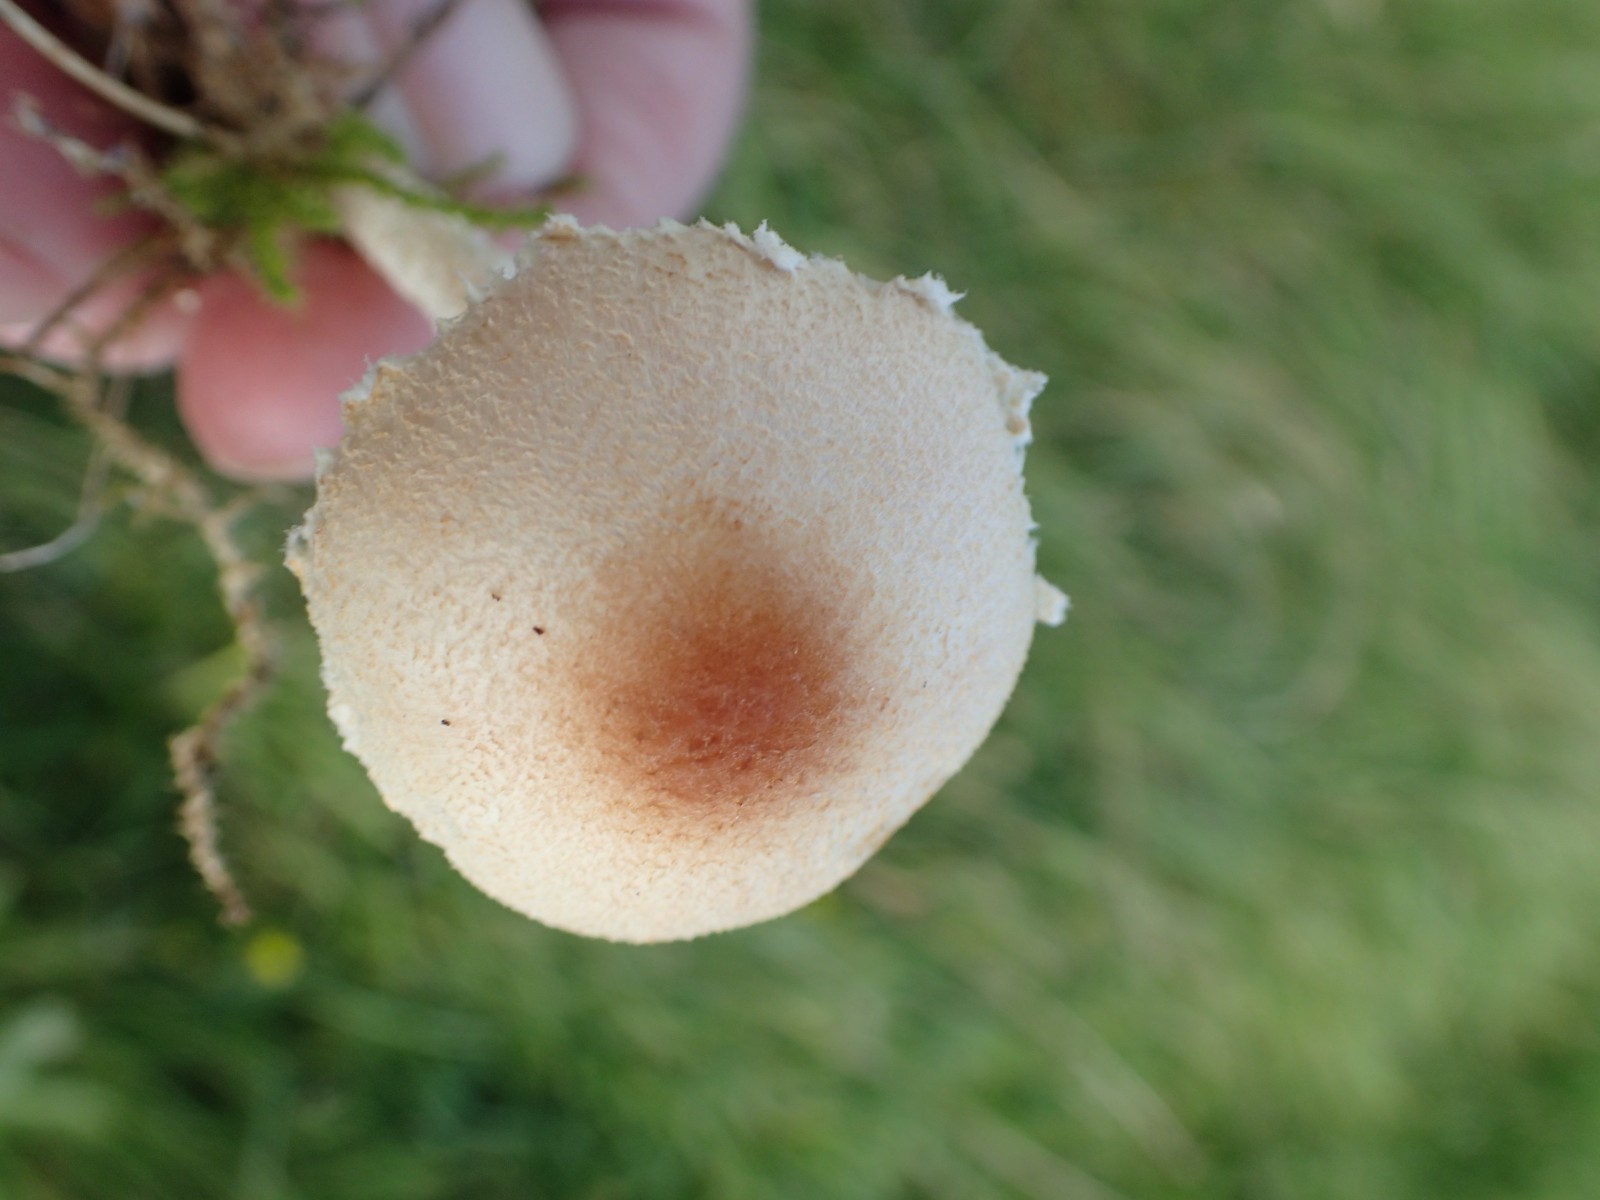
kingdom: Fungi
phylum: Basidiomycota
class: Agaricomycetes
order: Agaricales
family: Agaricaceae
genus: Lepiota
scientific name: Lepiota
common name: parasolhat
